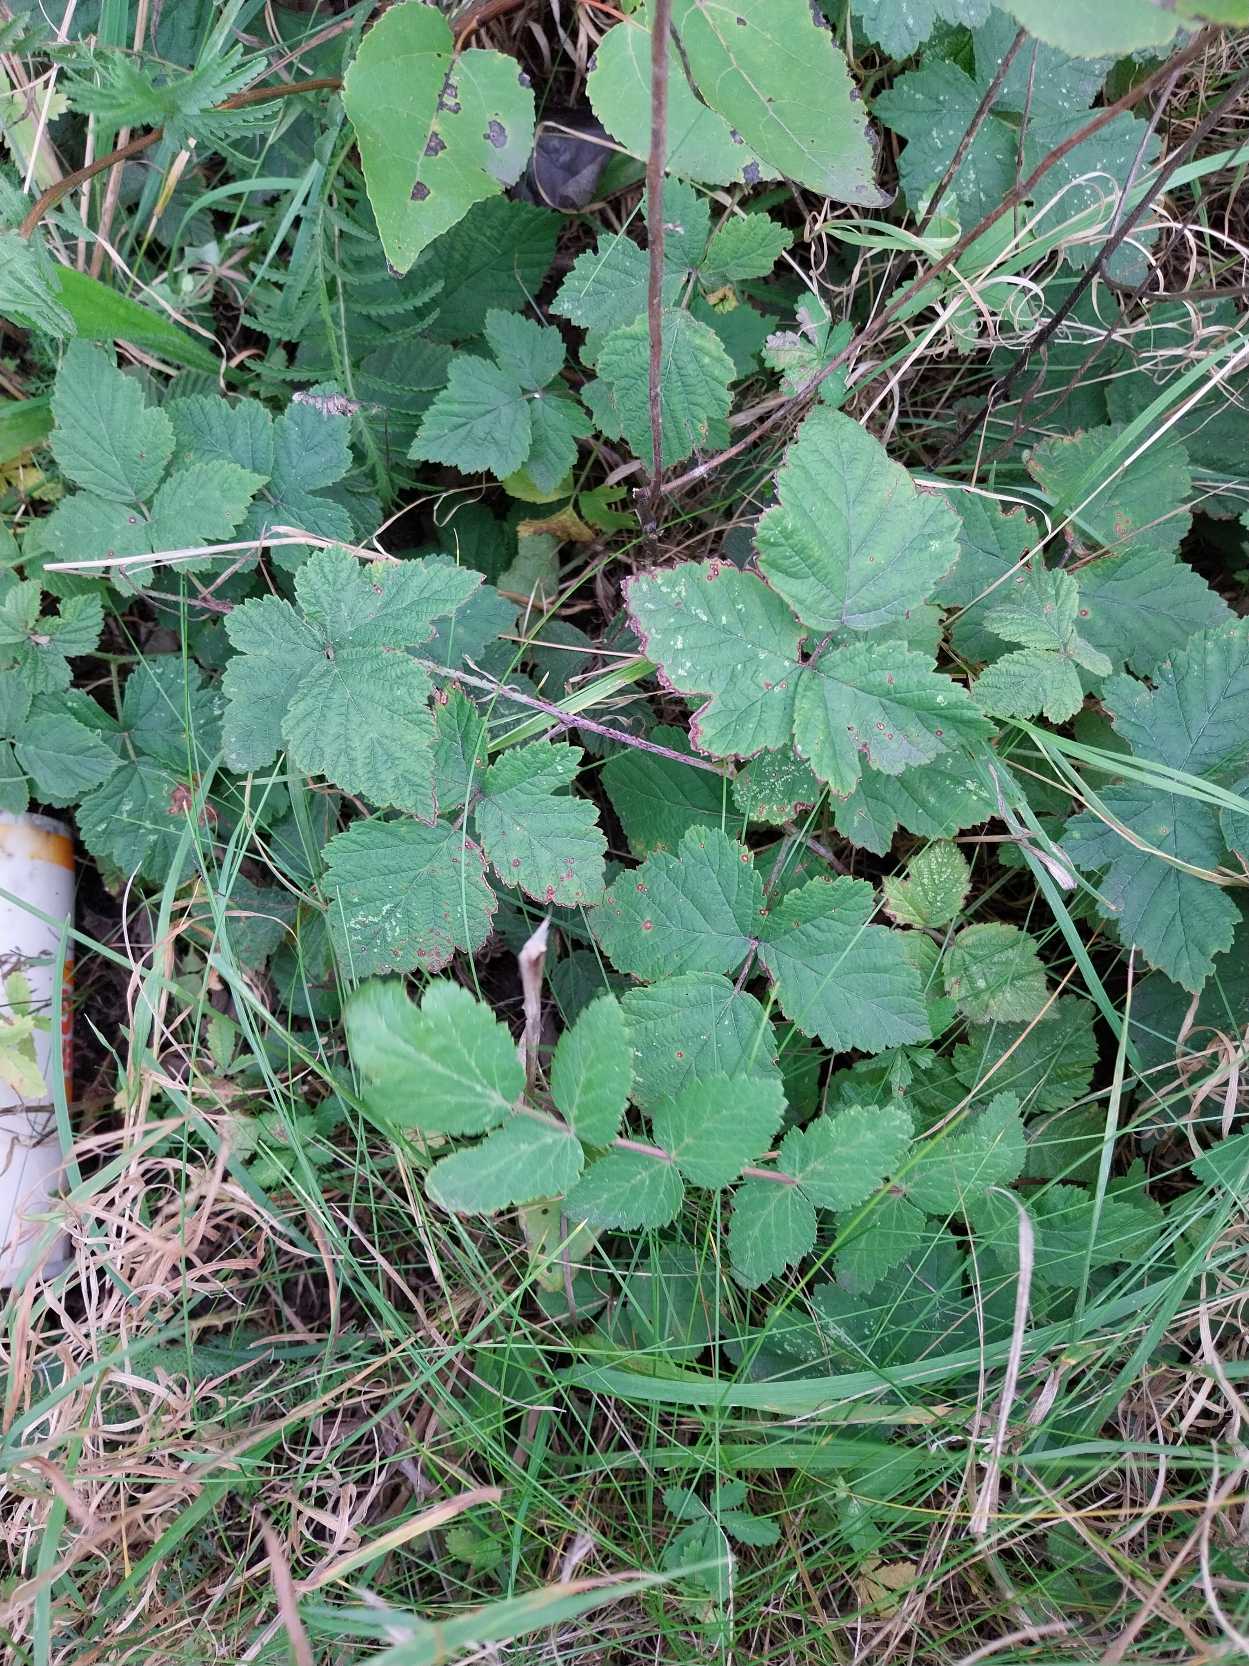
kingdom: Plantae
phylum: Tracheophyta
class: Magnoliopsida
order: Rosales
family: Rosaceae
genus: Rubus
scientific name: Rubus caesius
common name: Korbær
